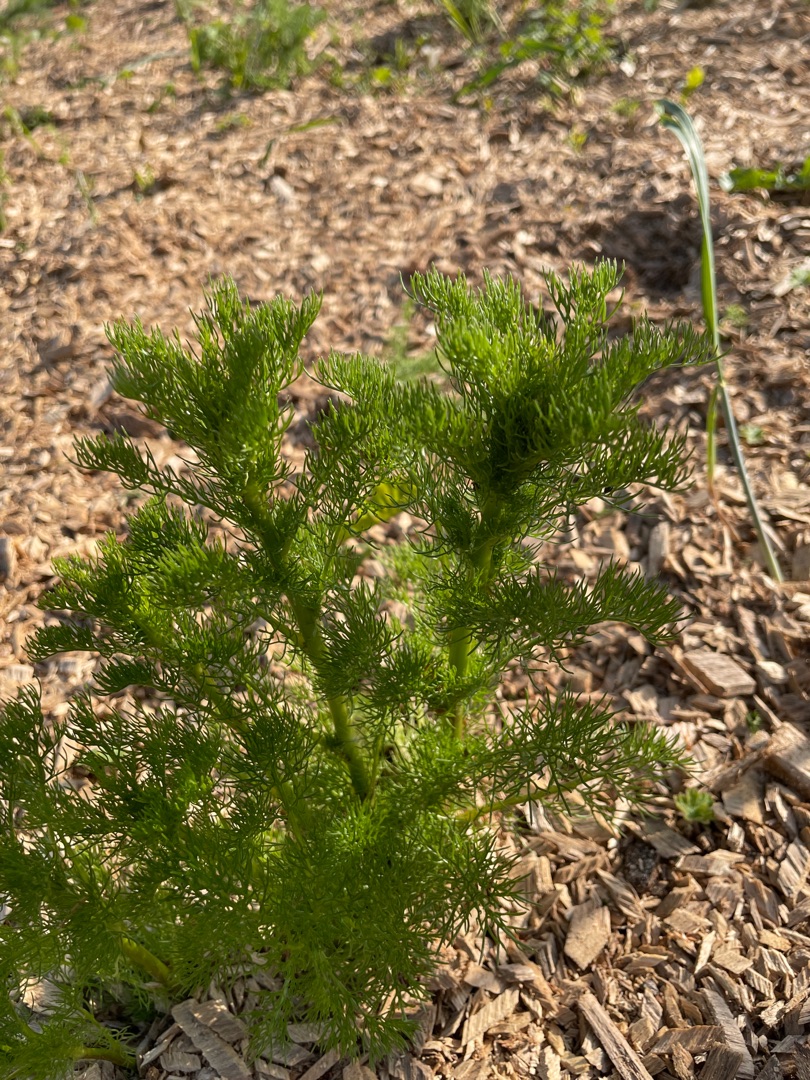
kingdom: Plantae
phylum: Tracheophyta
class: Magnoliopsida
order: Asterales
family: Asteraceae
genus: Tripleurospermum
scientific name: Tripleurospermum inodorum
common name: Lugtløs kamille
